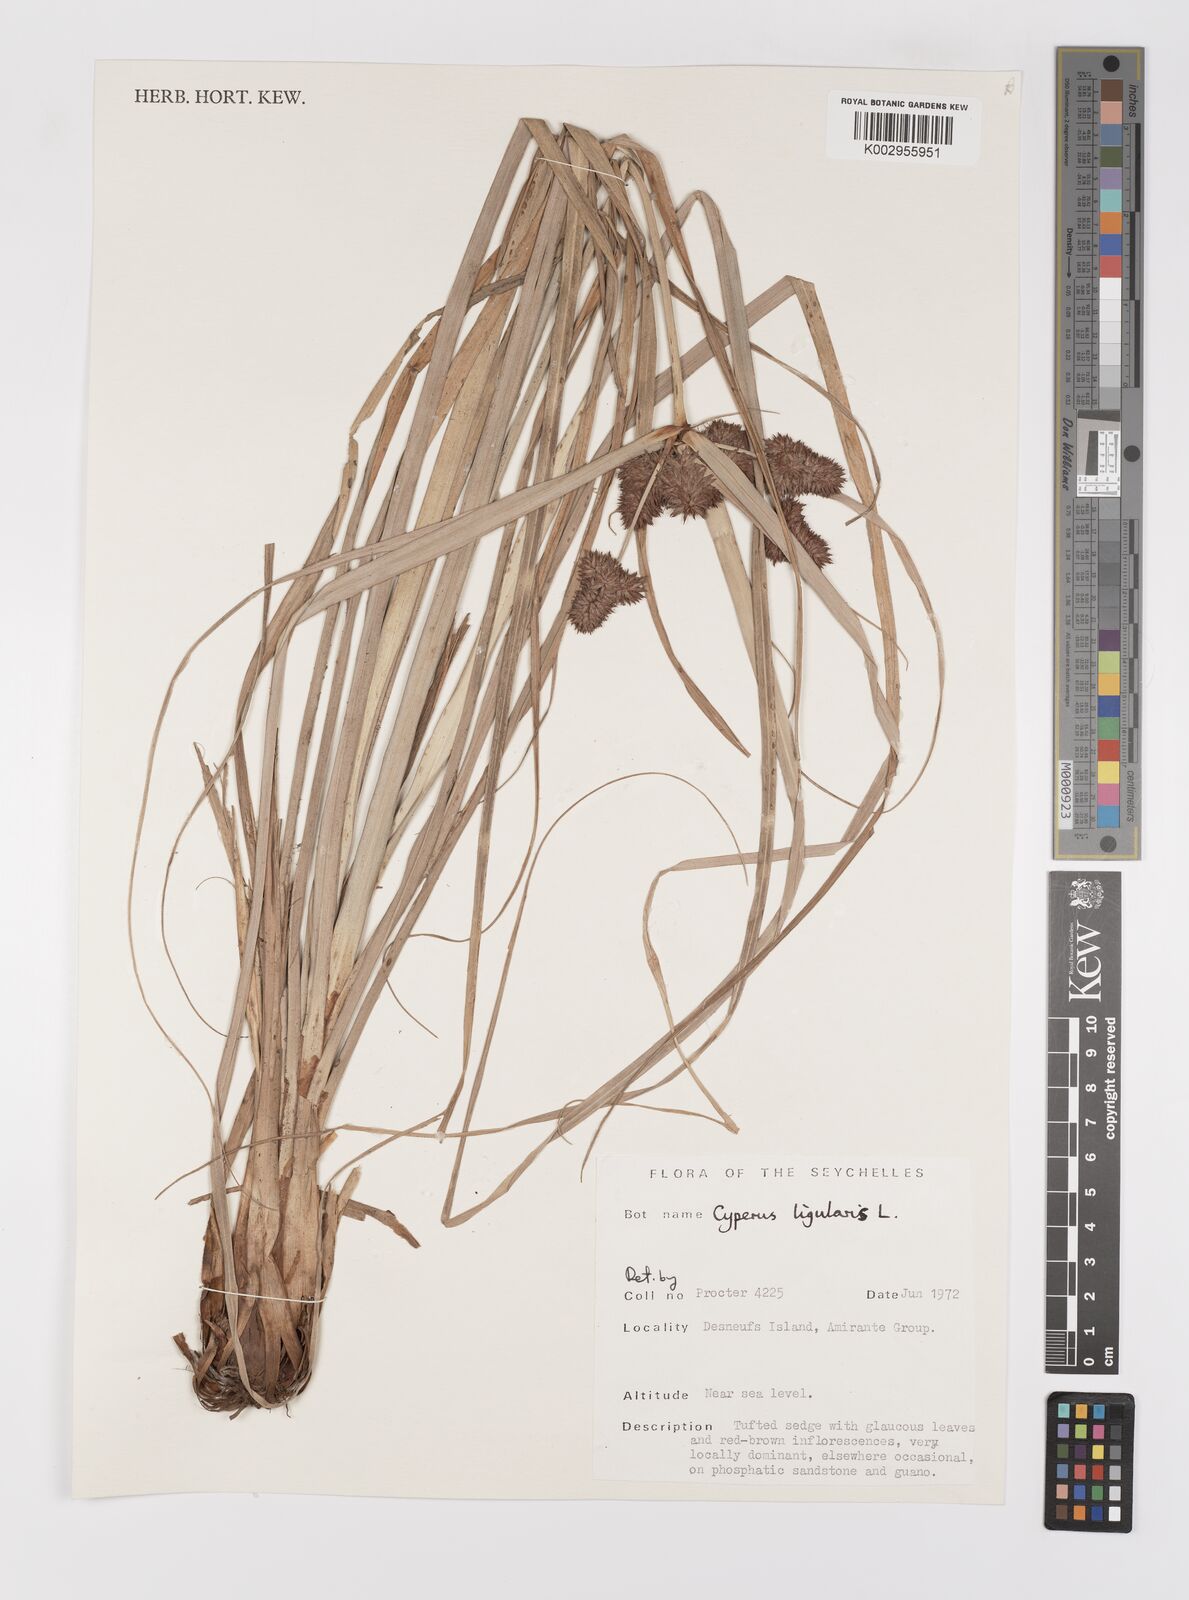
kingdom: Plantae
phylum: Tracheophyta
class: Liliopsida
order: Poales
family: Cyperaceae
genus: Cyperus
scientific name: Cyperus ligularis
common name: Swamp flat sedge
